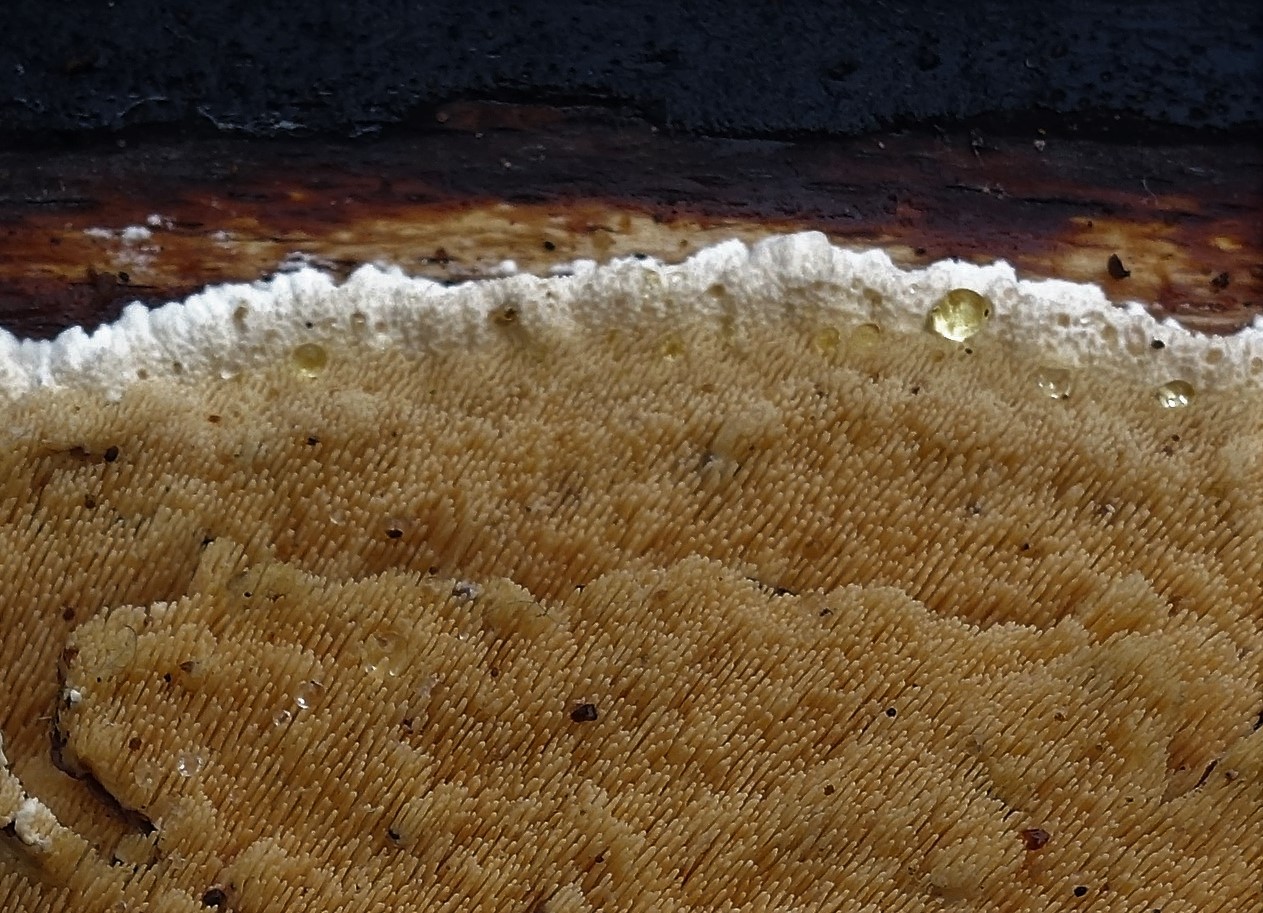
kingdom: Fungi
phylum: Basidiomycota
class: Agaricomycetes
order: Polyporales
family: Steccherinaceae
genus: Steccherinum
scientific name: Steccherinum ochraceum
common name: almindelig skønpig
